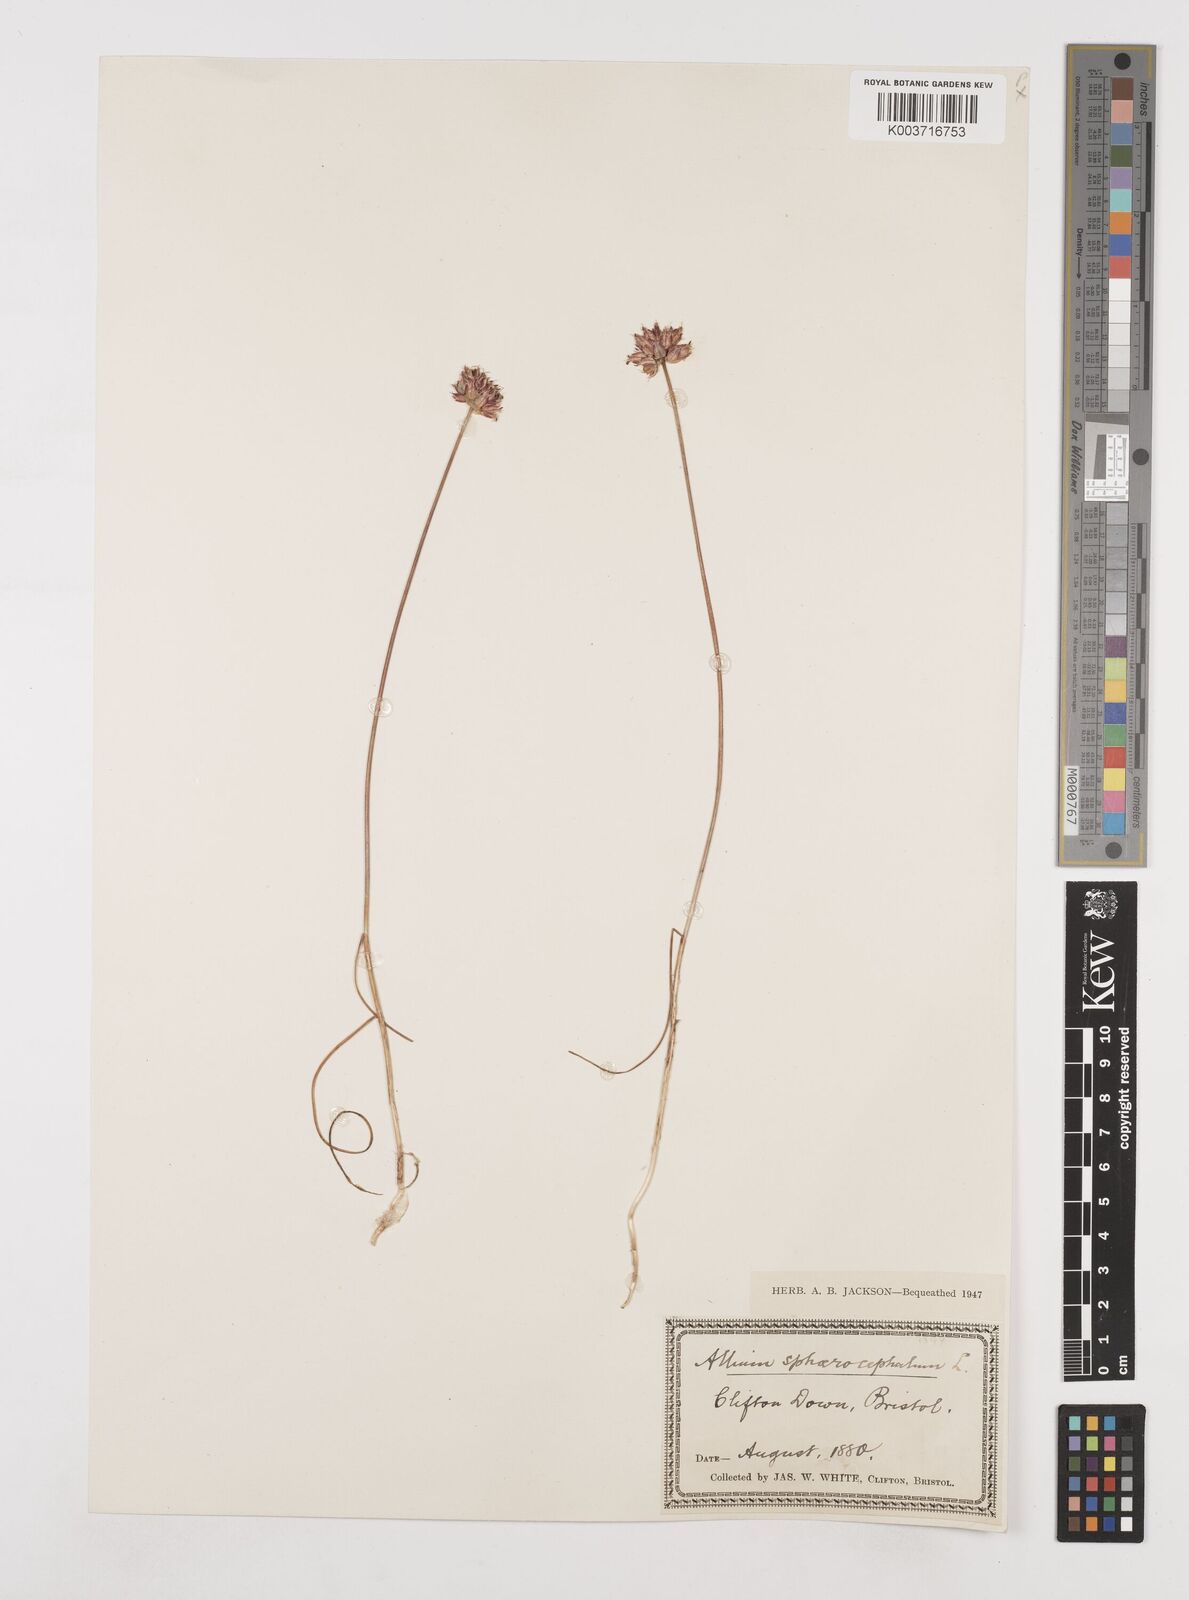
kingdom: Plantae
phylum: Tracheophyta
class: Liliopsida
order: Asparagales
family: Amaryllidaceae
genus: Allium
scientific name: Allium sphaerocephalon
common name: Round-headed leek
